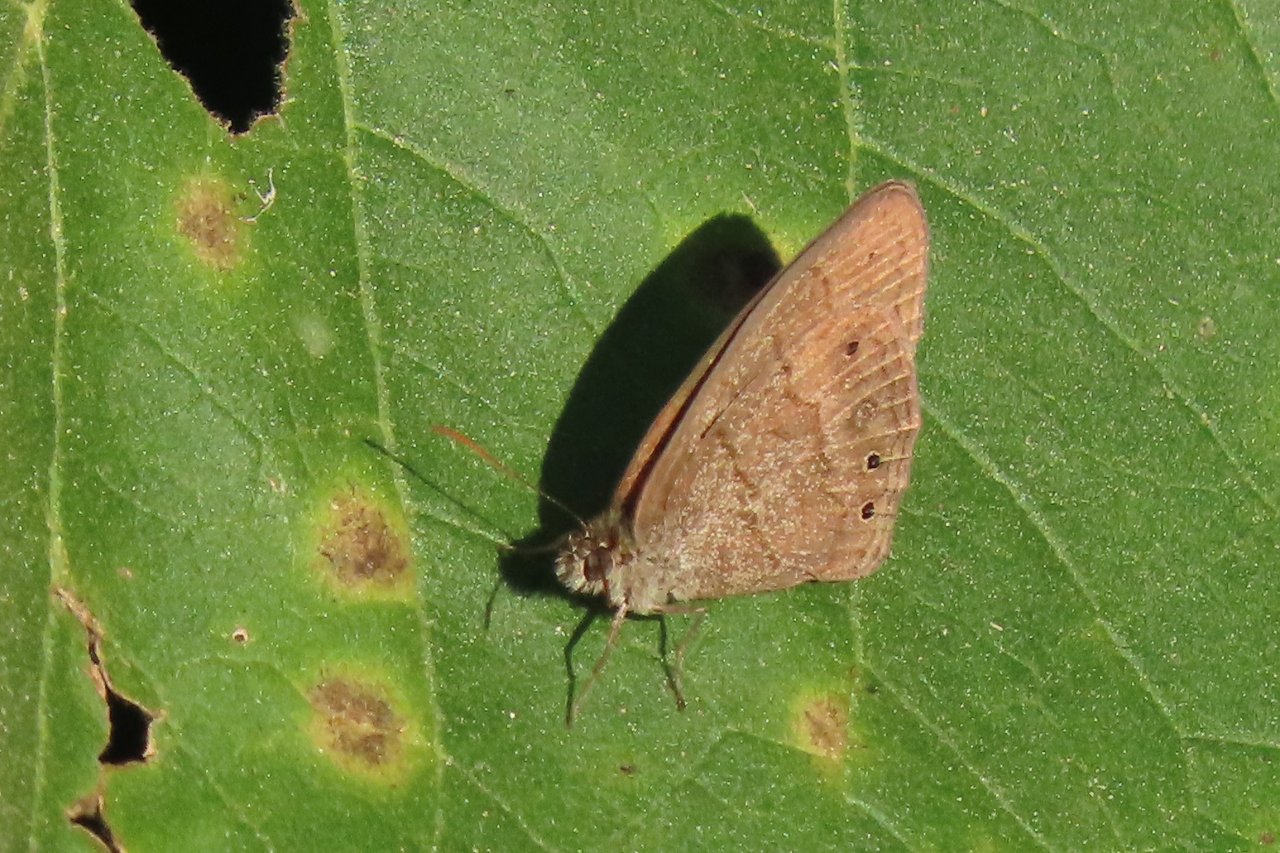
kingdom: Animalia
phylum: Arthropoda
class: Insecta
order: Lepidoptera
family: Nymphalidae
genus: Hermeuptychia
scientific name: Hermeuptychia hermes
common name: Carolina Satyr
